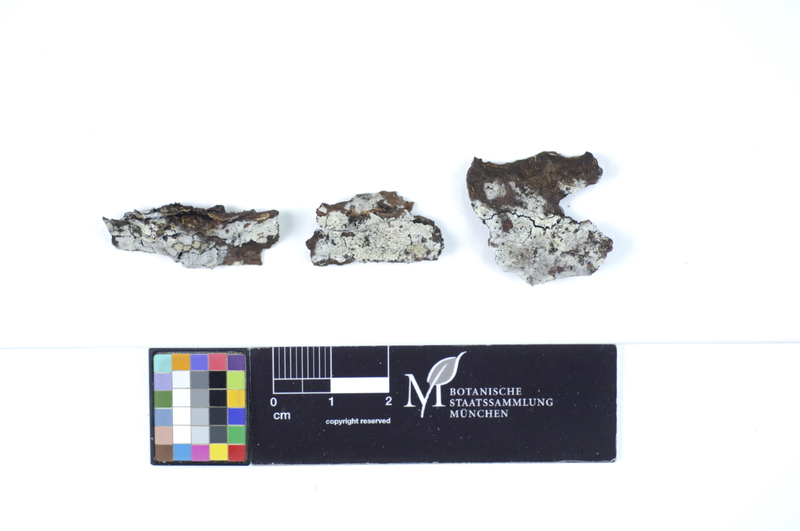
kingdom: Fungi
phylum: Basidiomycota
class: Agaricomycetes
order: Polyporales
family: Hyphodermataceae
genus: Hyphoderma
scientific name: Hyphoderma sibiricum
